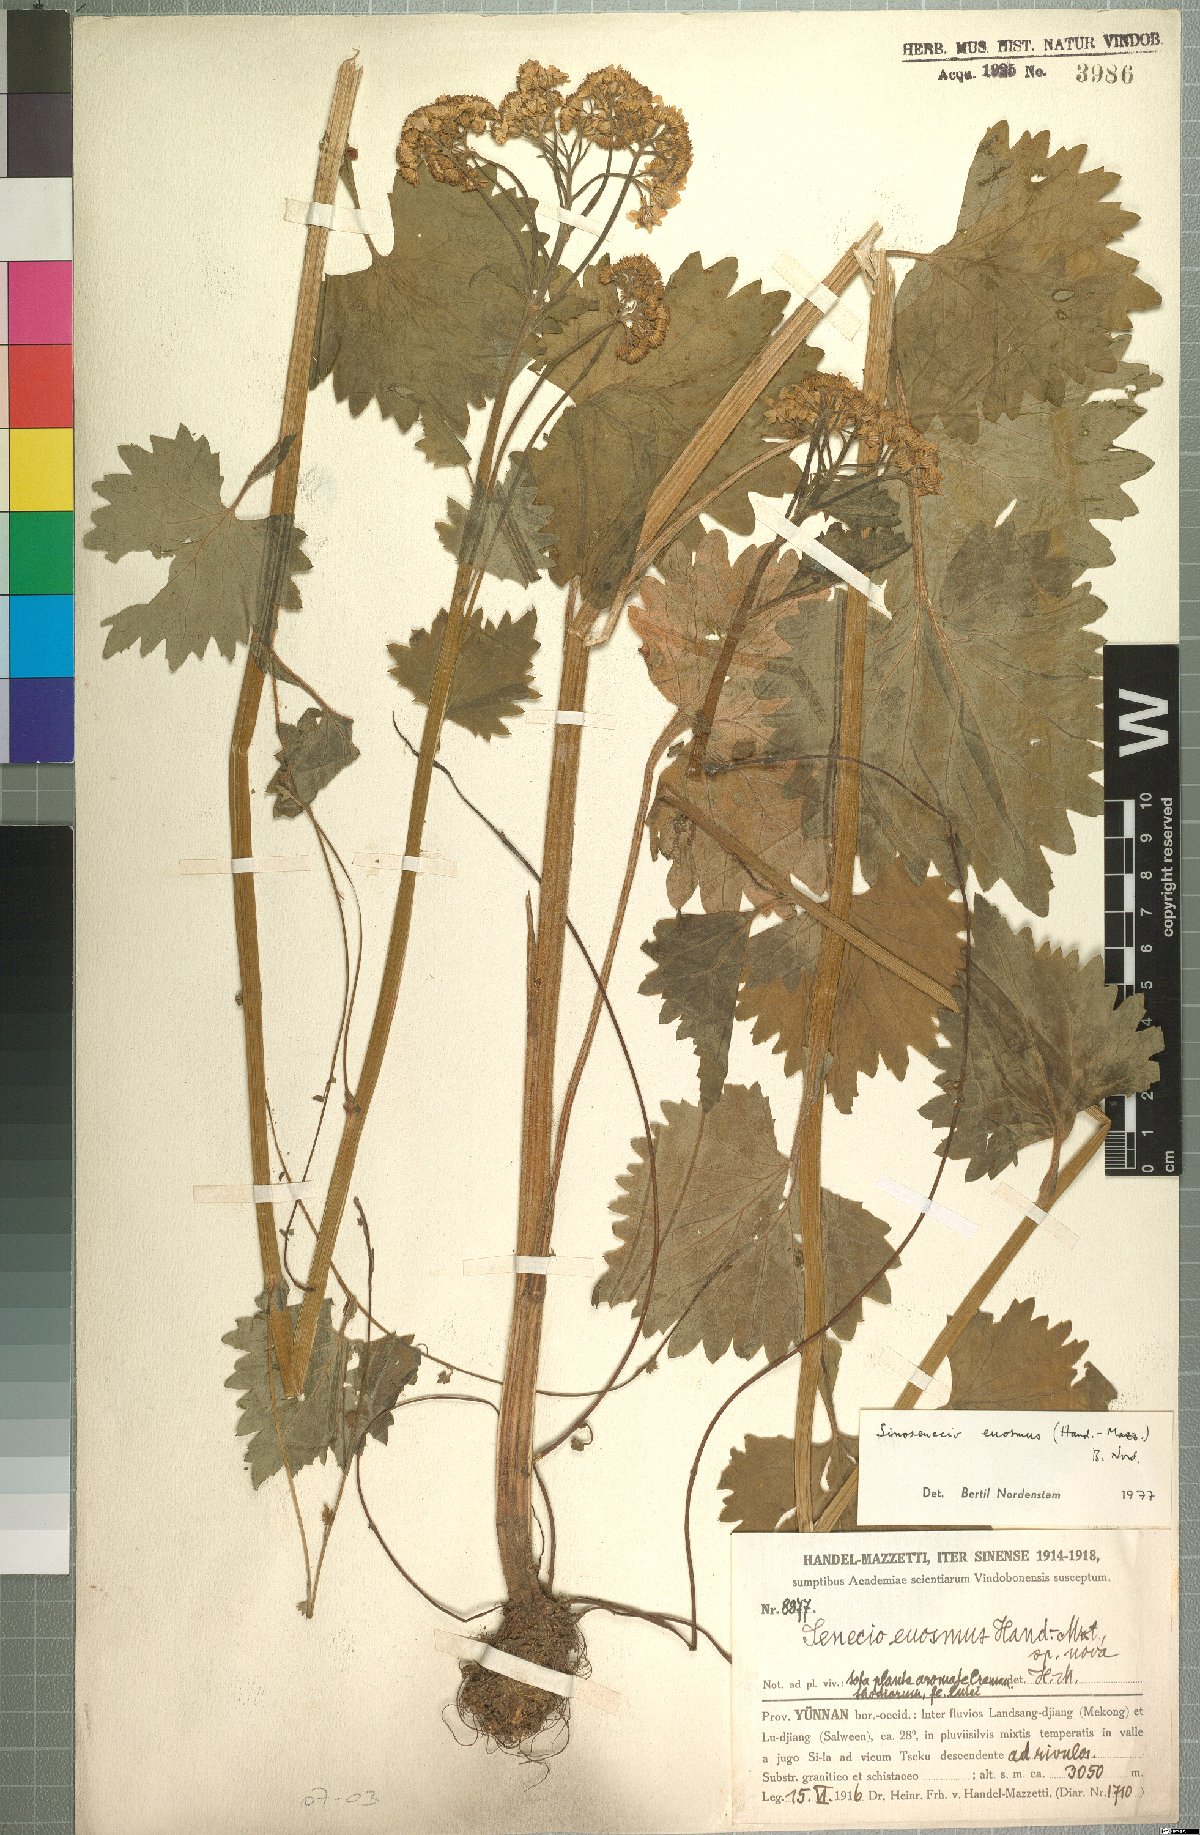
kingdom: Plantae
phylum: Tracheophyta
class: Magnoliopsida
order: Asterales
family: Asteraceae
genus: Sinosenecio
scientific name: Sinosenecio euosmus
